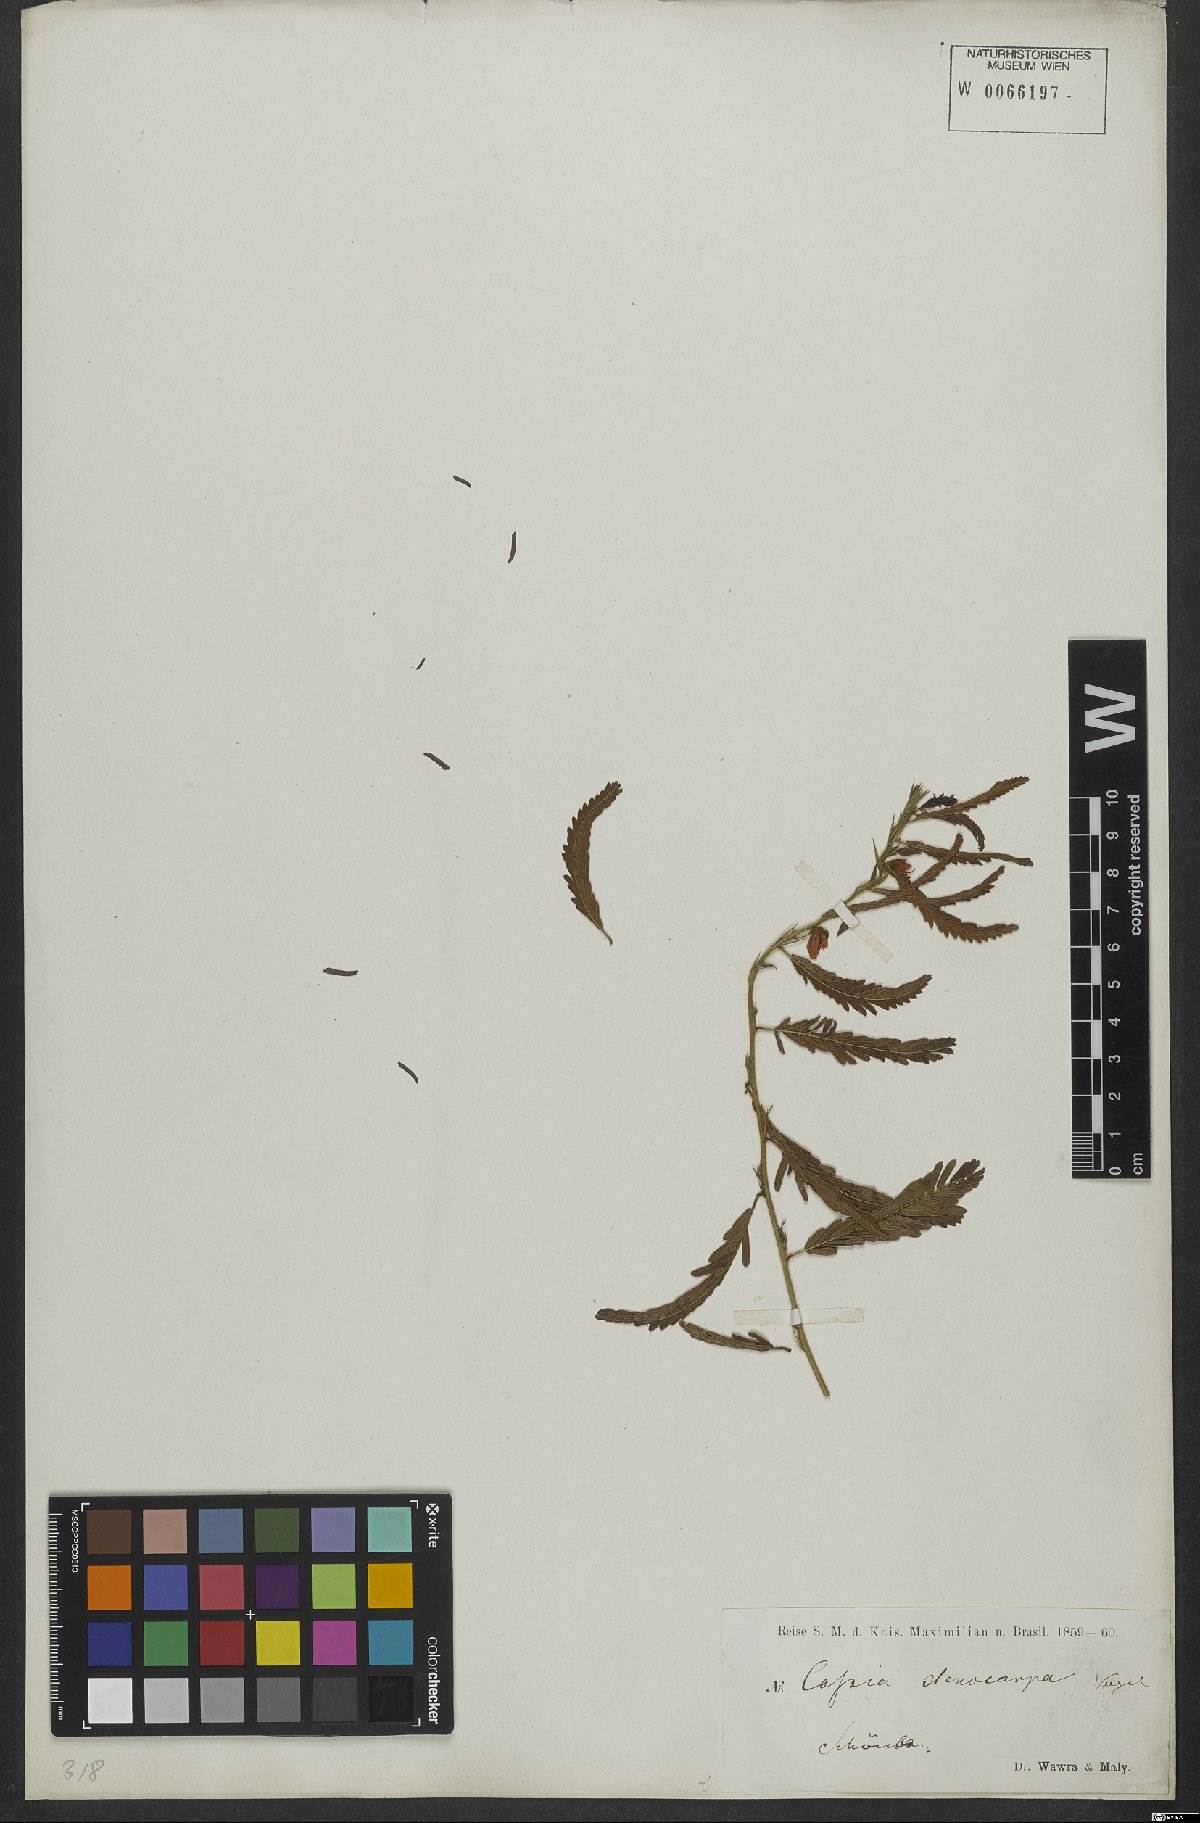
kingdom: Plantae
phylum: Tracheophyta
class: Magnoliopsida
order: Fabales
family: Fabaceae
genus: Chamaecrista
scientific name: Chamaecrista nictitans
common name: Sensitive cassia
